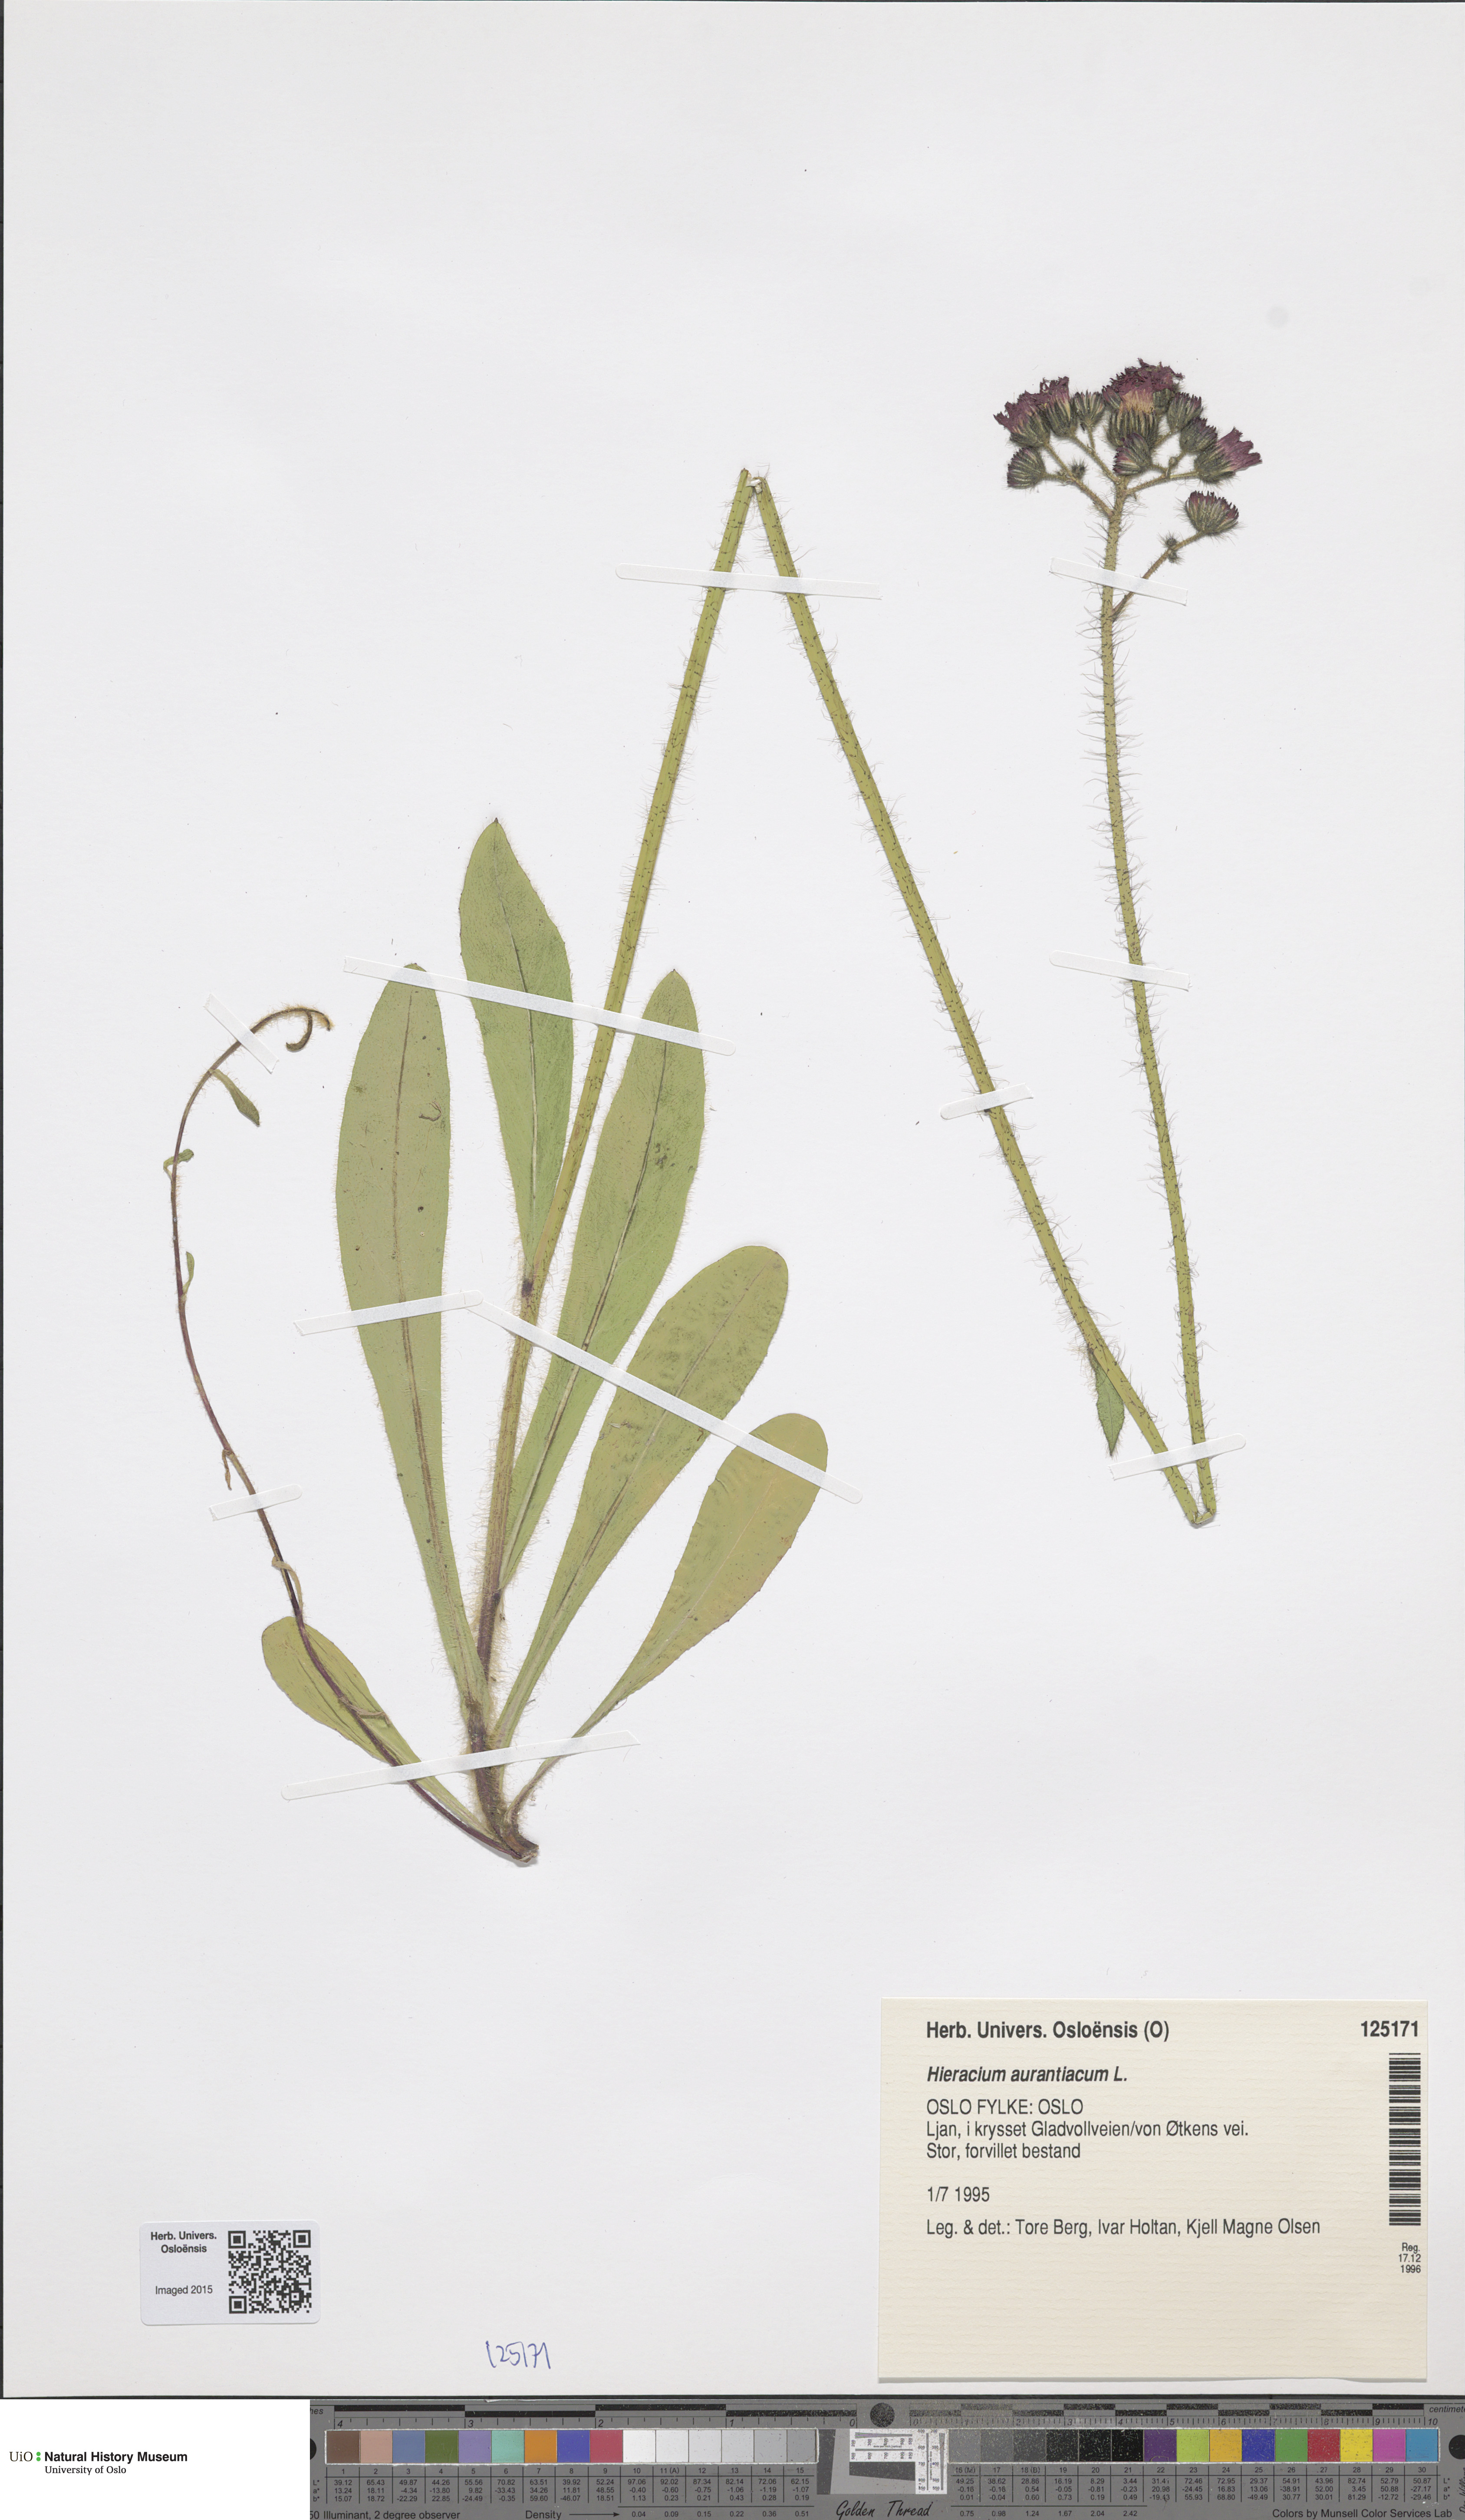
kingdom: Plantae
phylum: Tracheophyta
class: Magnoliopsida
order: Asterales
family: Asteraceae
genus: Pilosella
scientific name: Pilosella aurantiaca
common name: Fox-and-cubs
